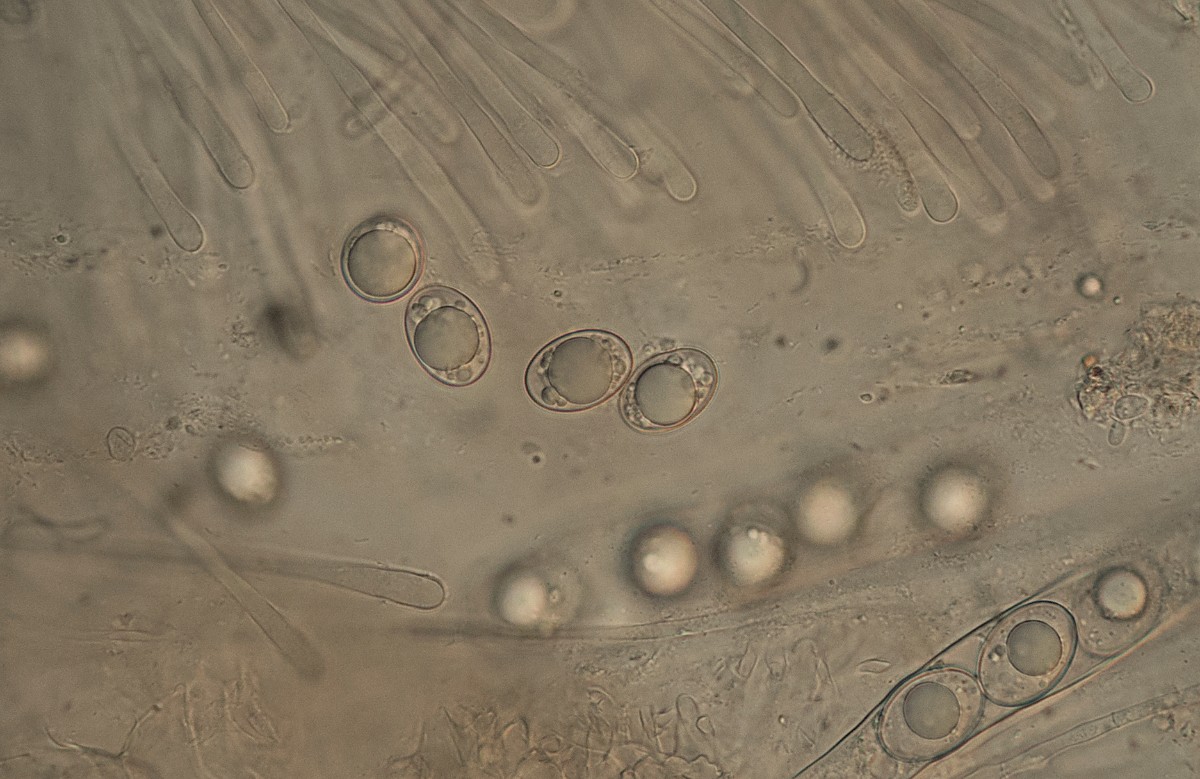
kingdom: Fungi
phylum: Ascomycota
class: Pezizomycetes
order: Pezizales
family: Pyronemataceae
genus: Trichophaea
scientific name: Trichophaea woolhopeia
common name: bredsporet børstebæger
